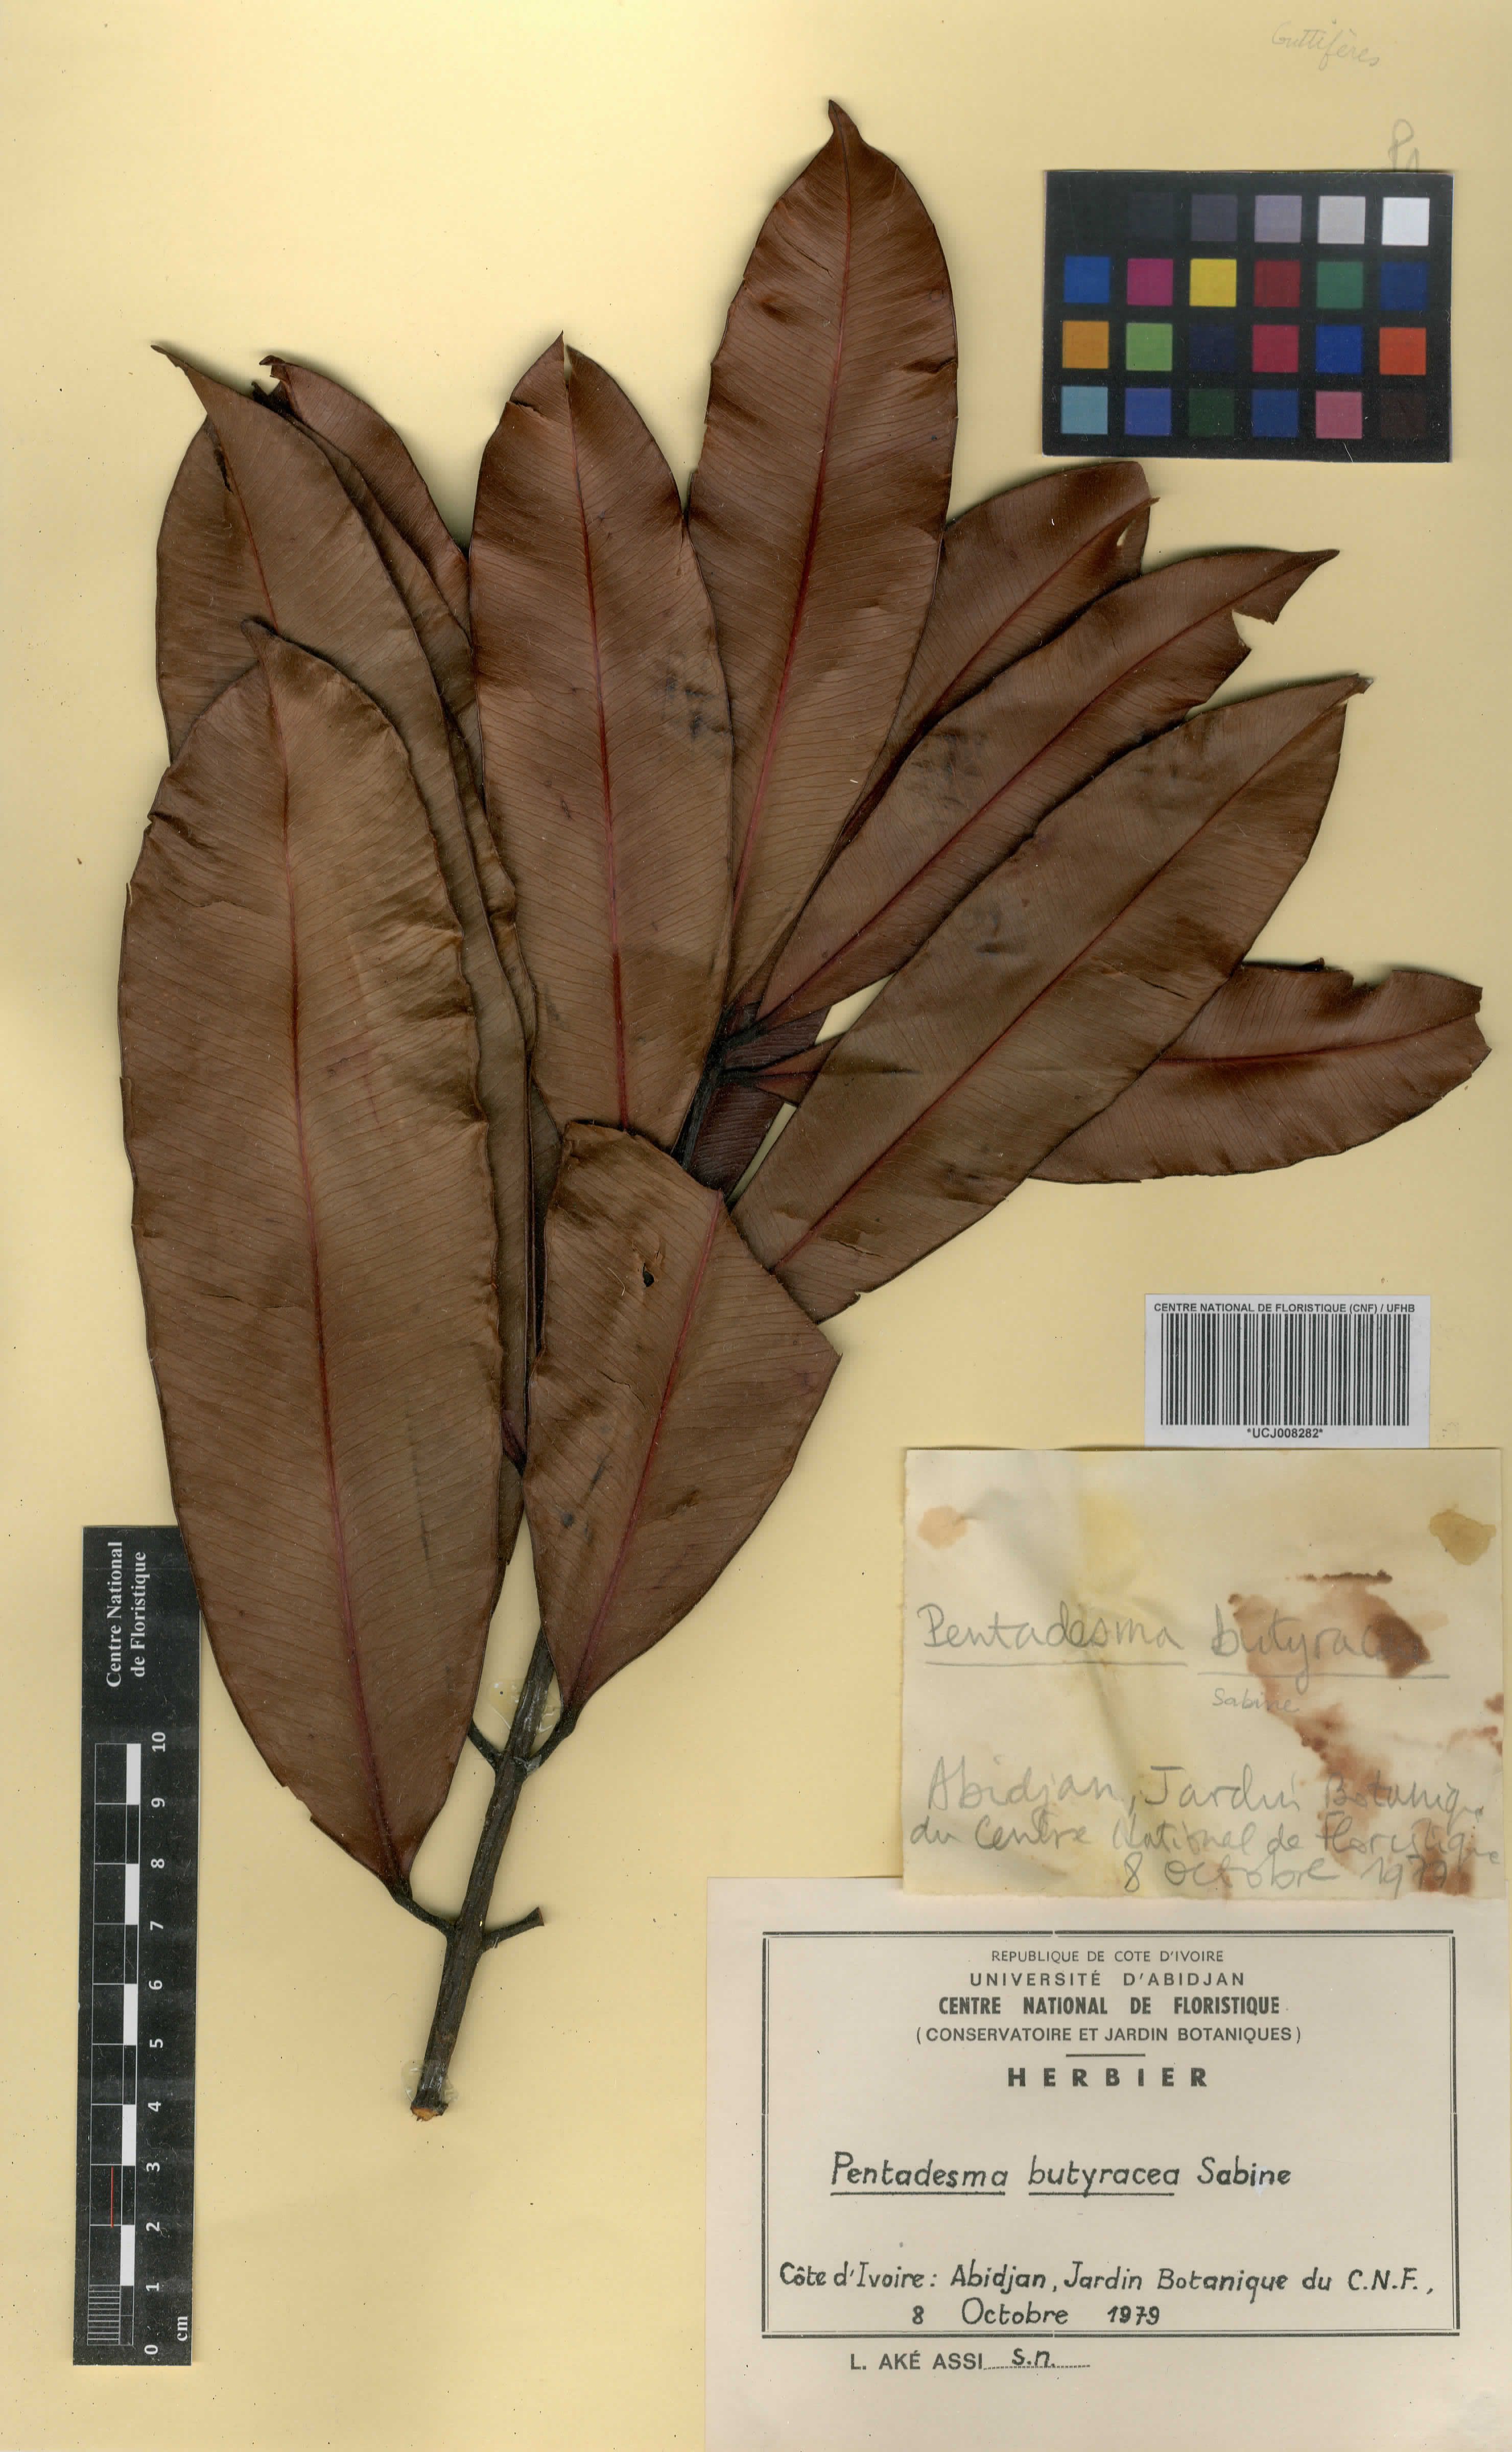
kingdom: Plantae
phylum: Tracheophyta
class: Magnoliopsida
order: Malpighiales
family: Clusiaceae
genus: Pentadesma
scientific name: Pentadesma butyracea
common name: Buttertree
